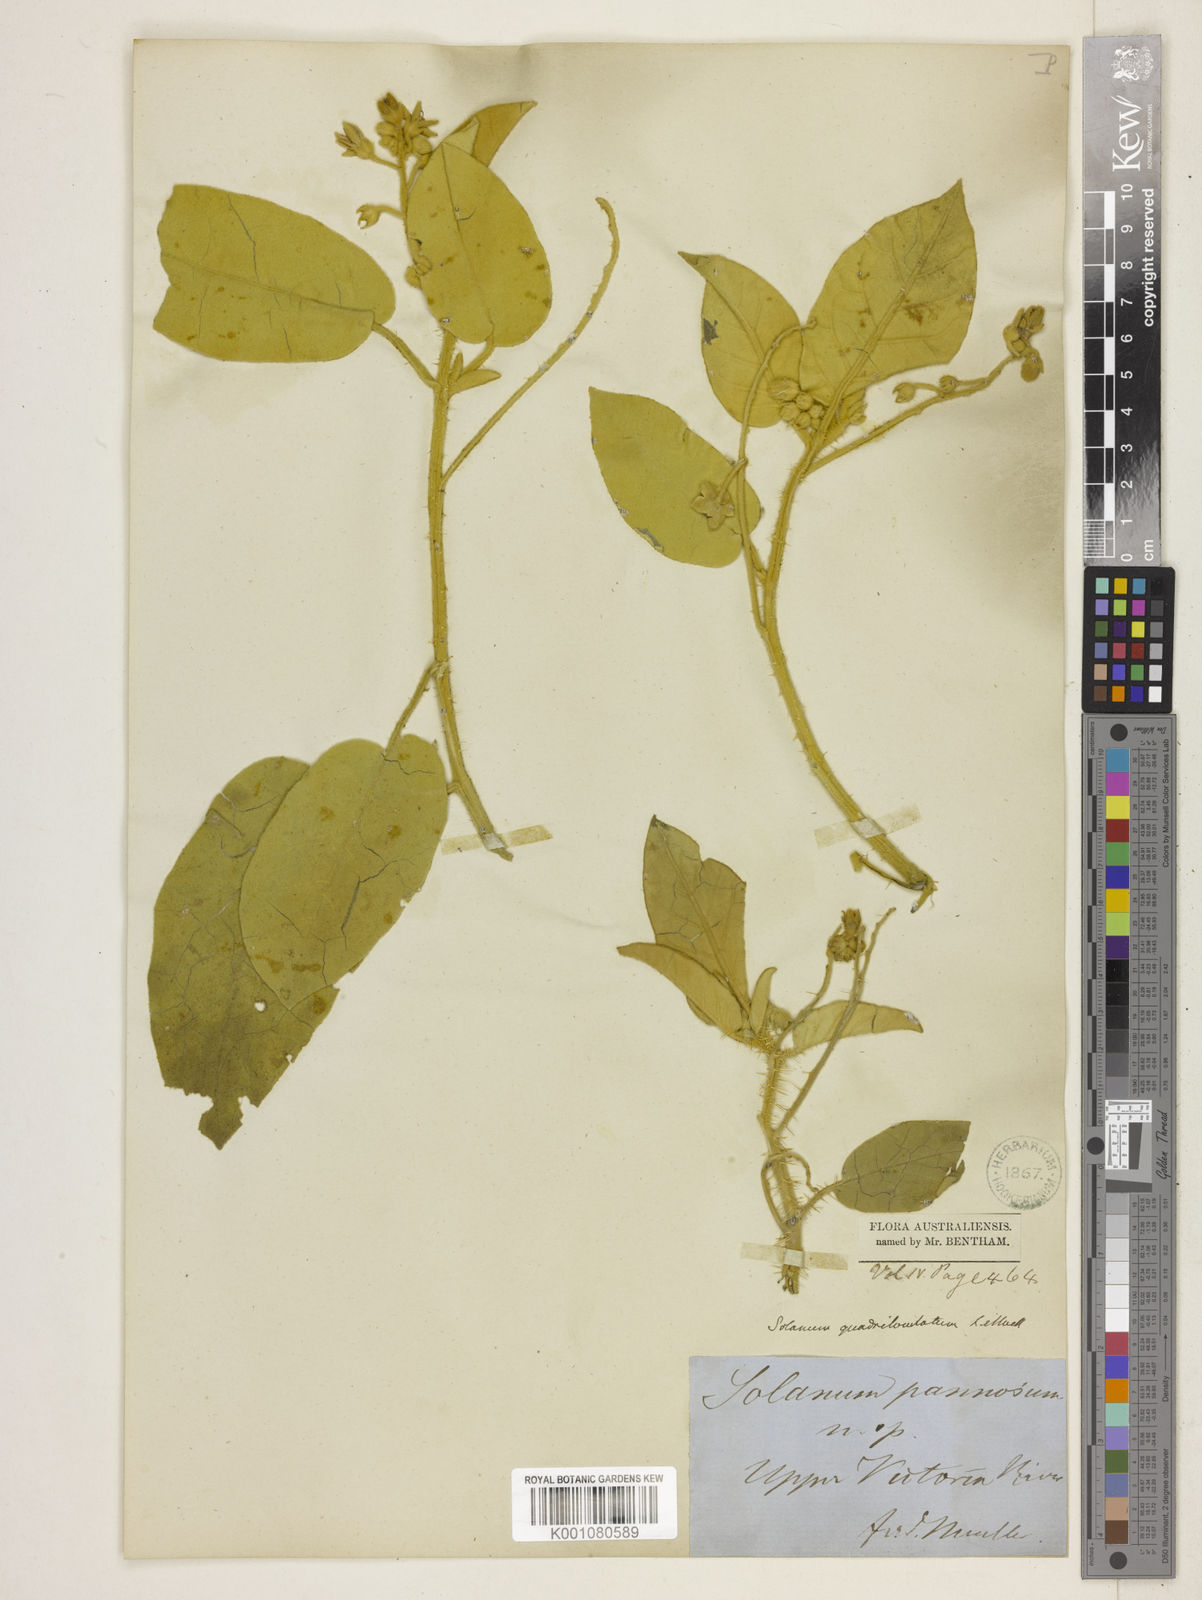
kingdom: Plantae
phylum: Tracheophyta
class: Magnoliopsida
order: Solanales
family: Solanaceae
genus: Solanum
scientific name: Solanum quadriloculatum
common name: Wild tomato
